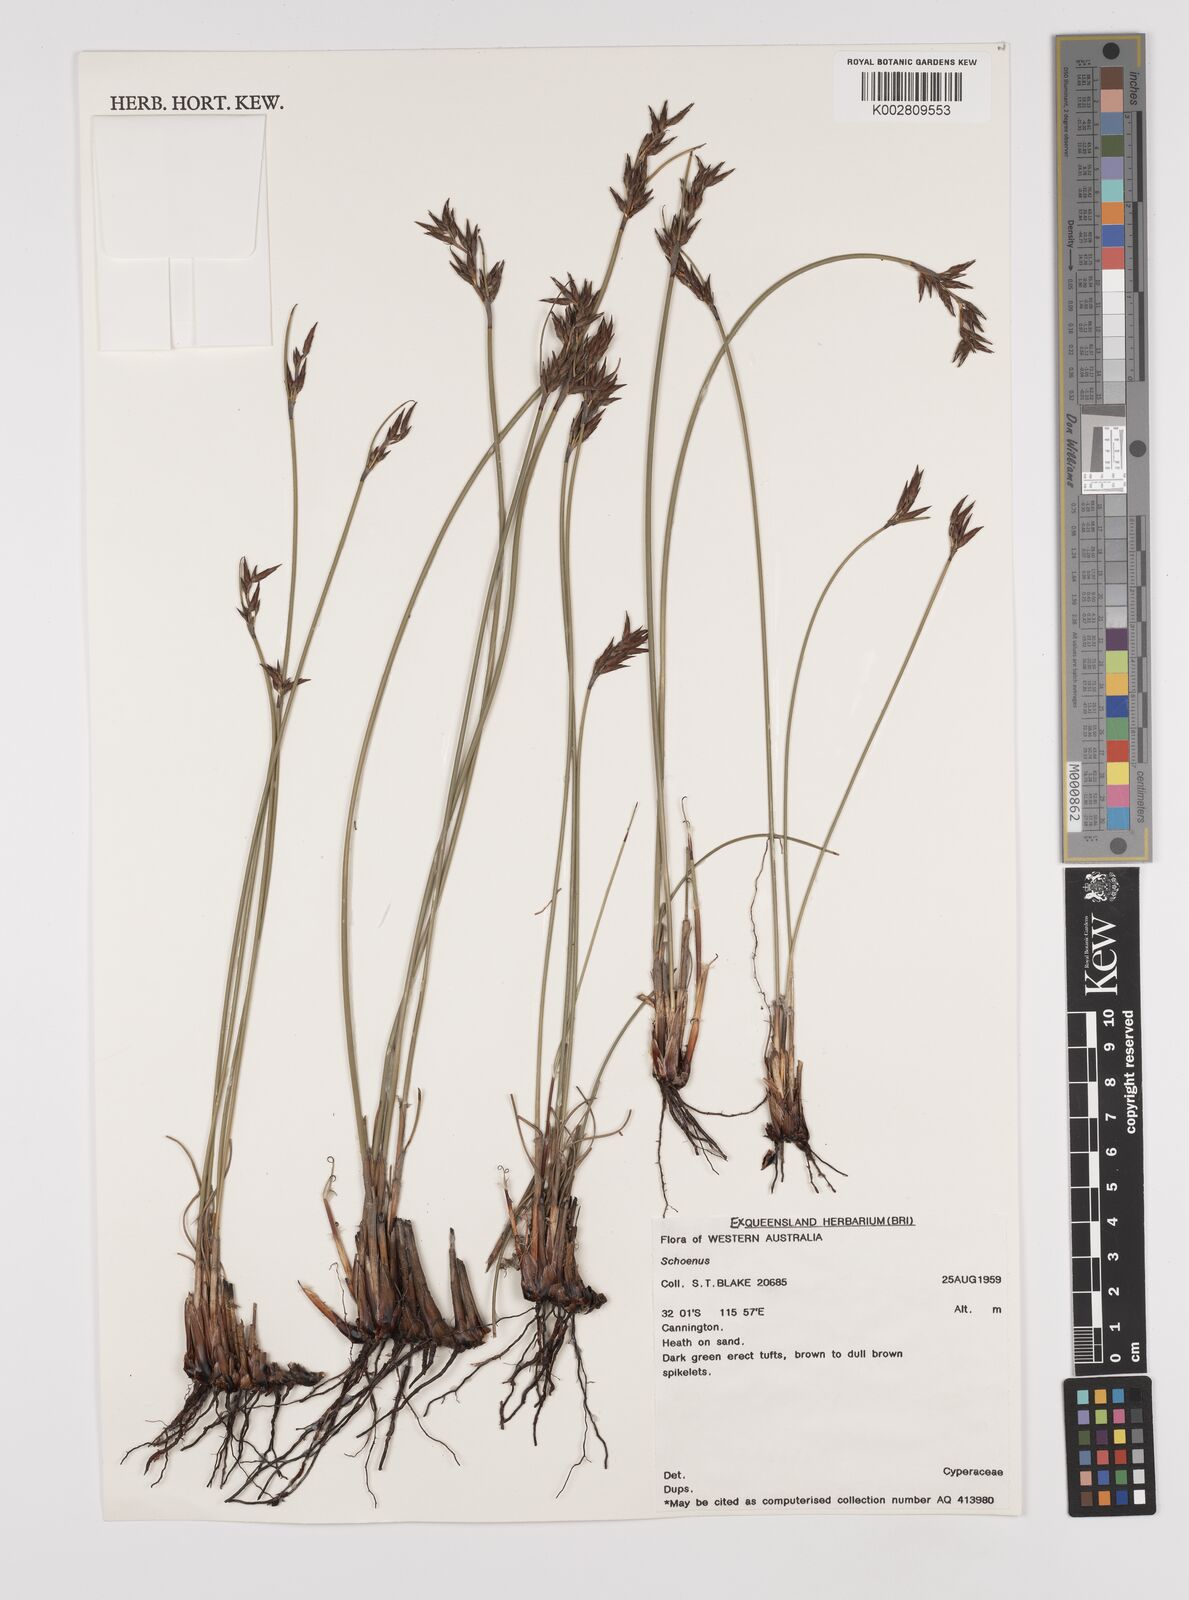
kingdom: Plantae
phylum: Tracheophyta
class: Liliopsida
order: Poales
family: Cyperaceae
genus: Schoenus
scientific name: Schoenus
